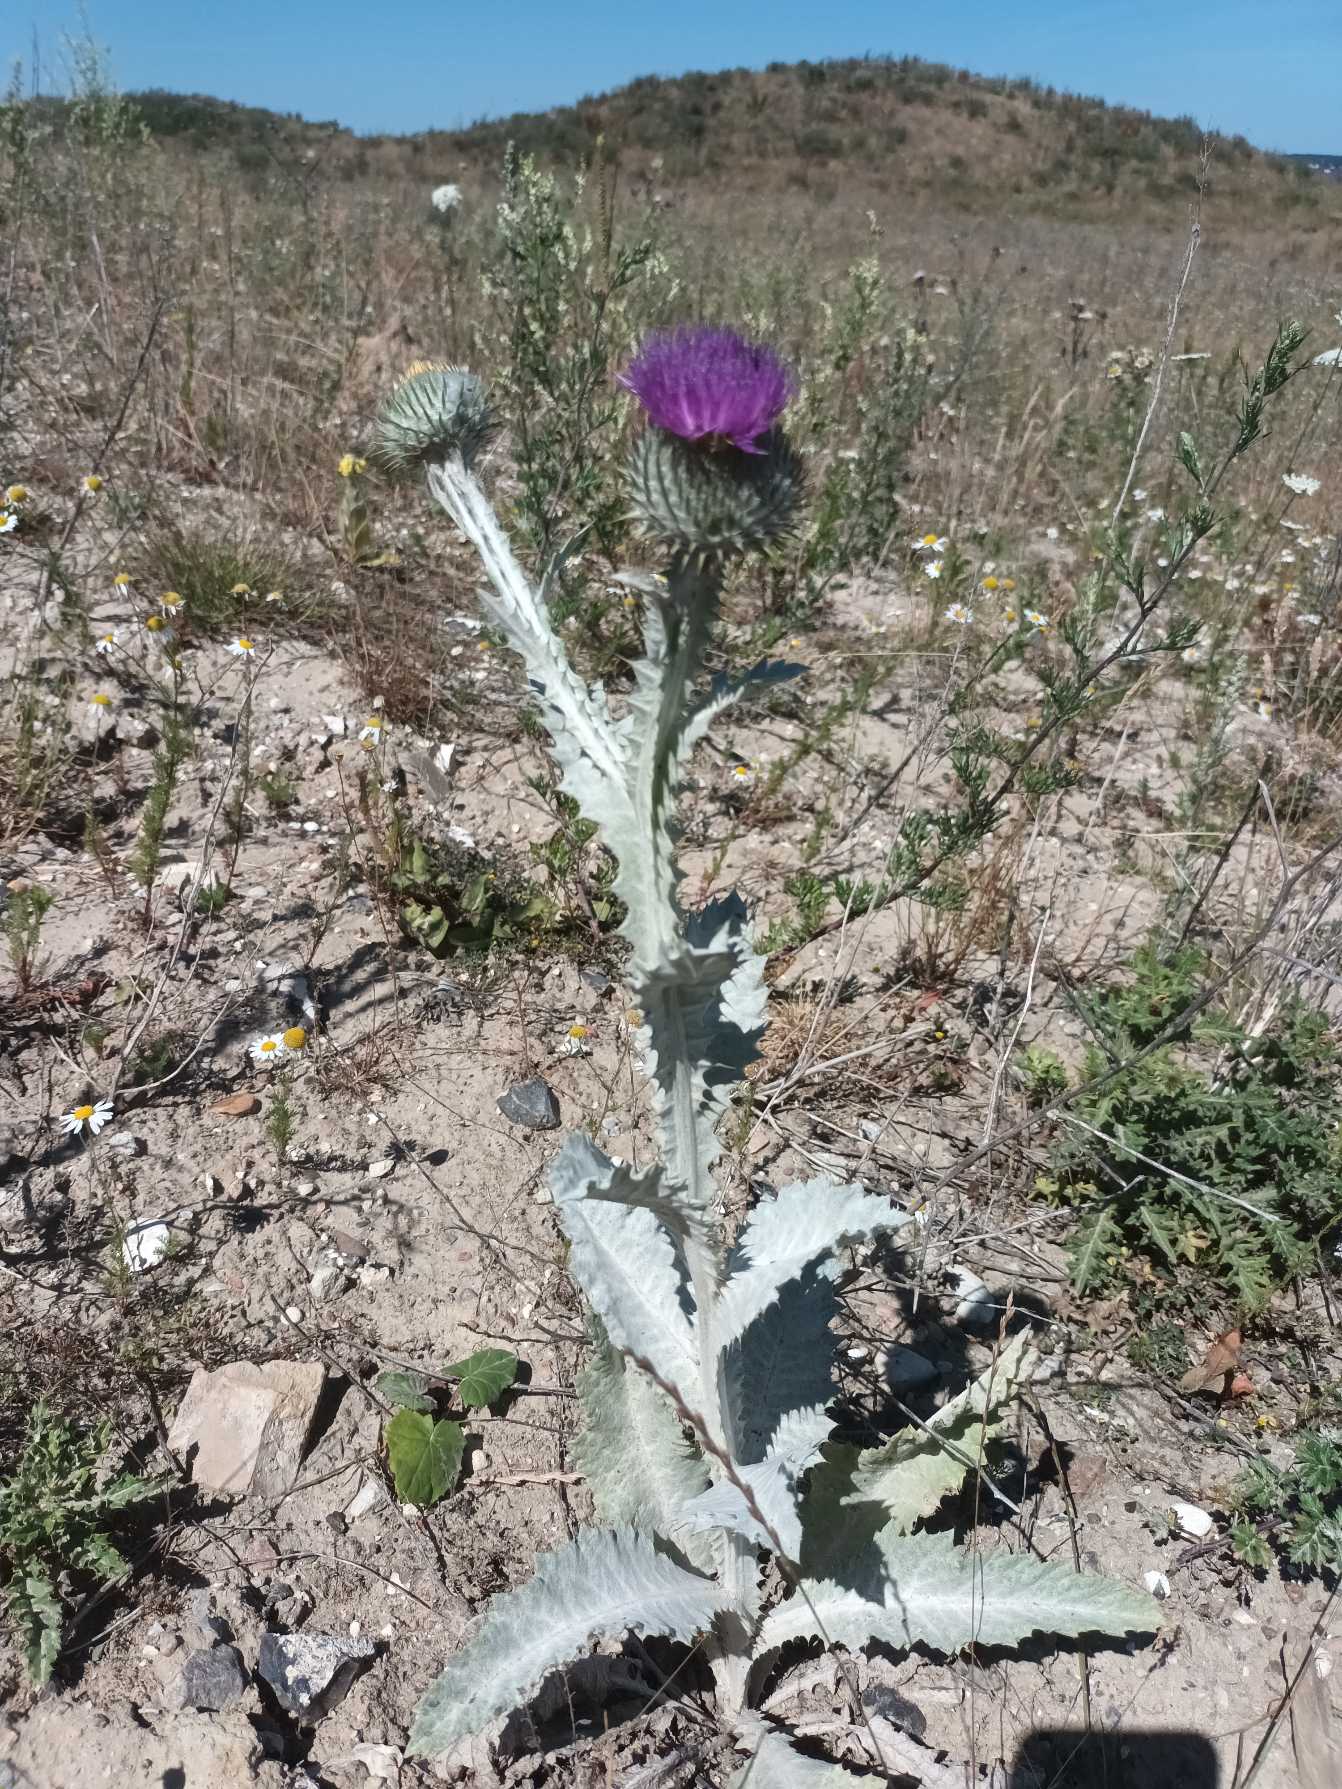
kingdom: Plantae
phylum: Tracheophyta
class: Magnoliopsida
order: Asterales
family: Asteraceae
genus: Onopordum
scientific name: Onopordum acanthium
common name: Æselfoder
